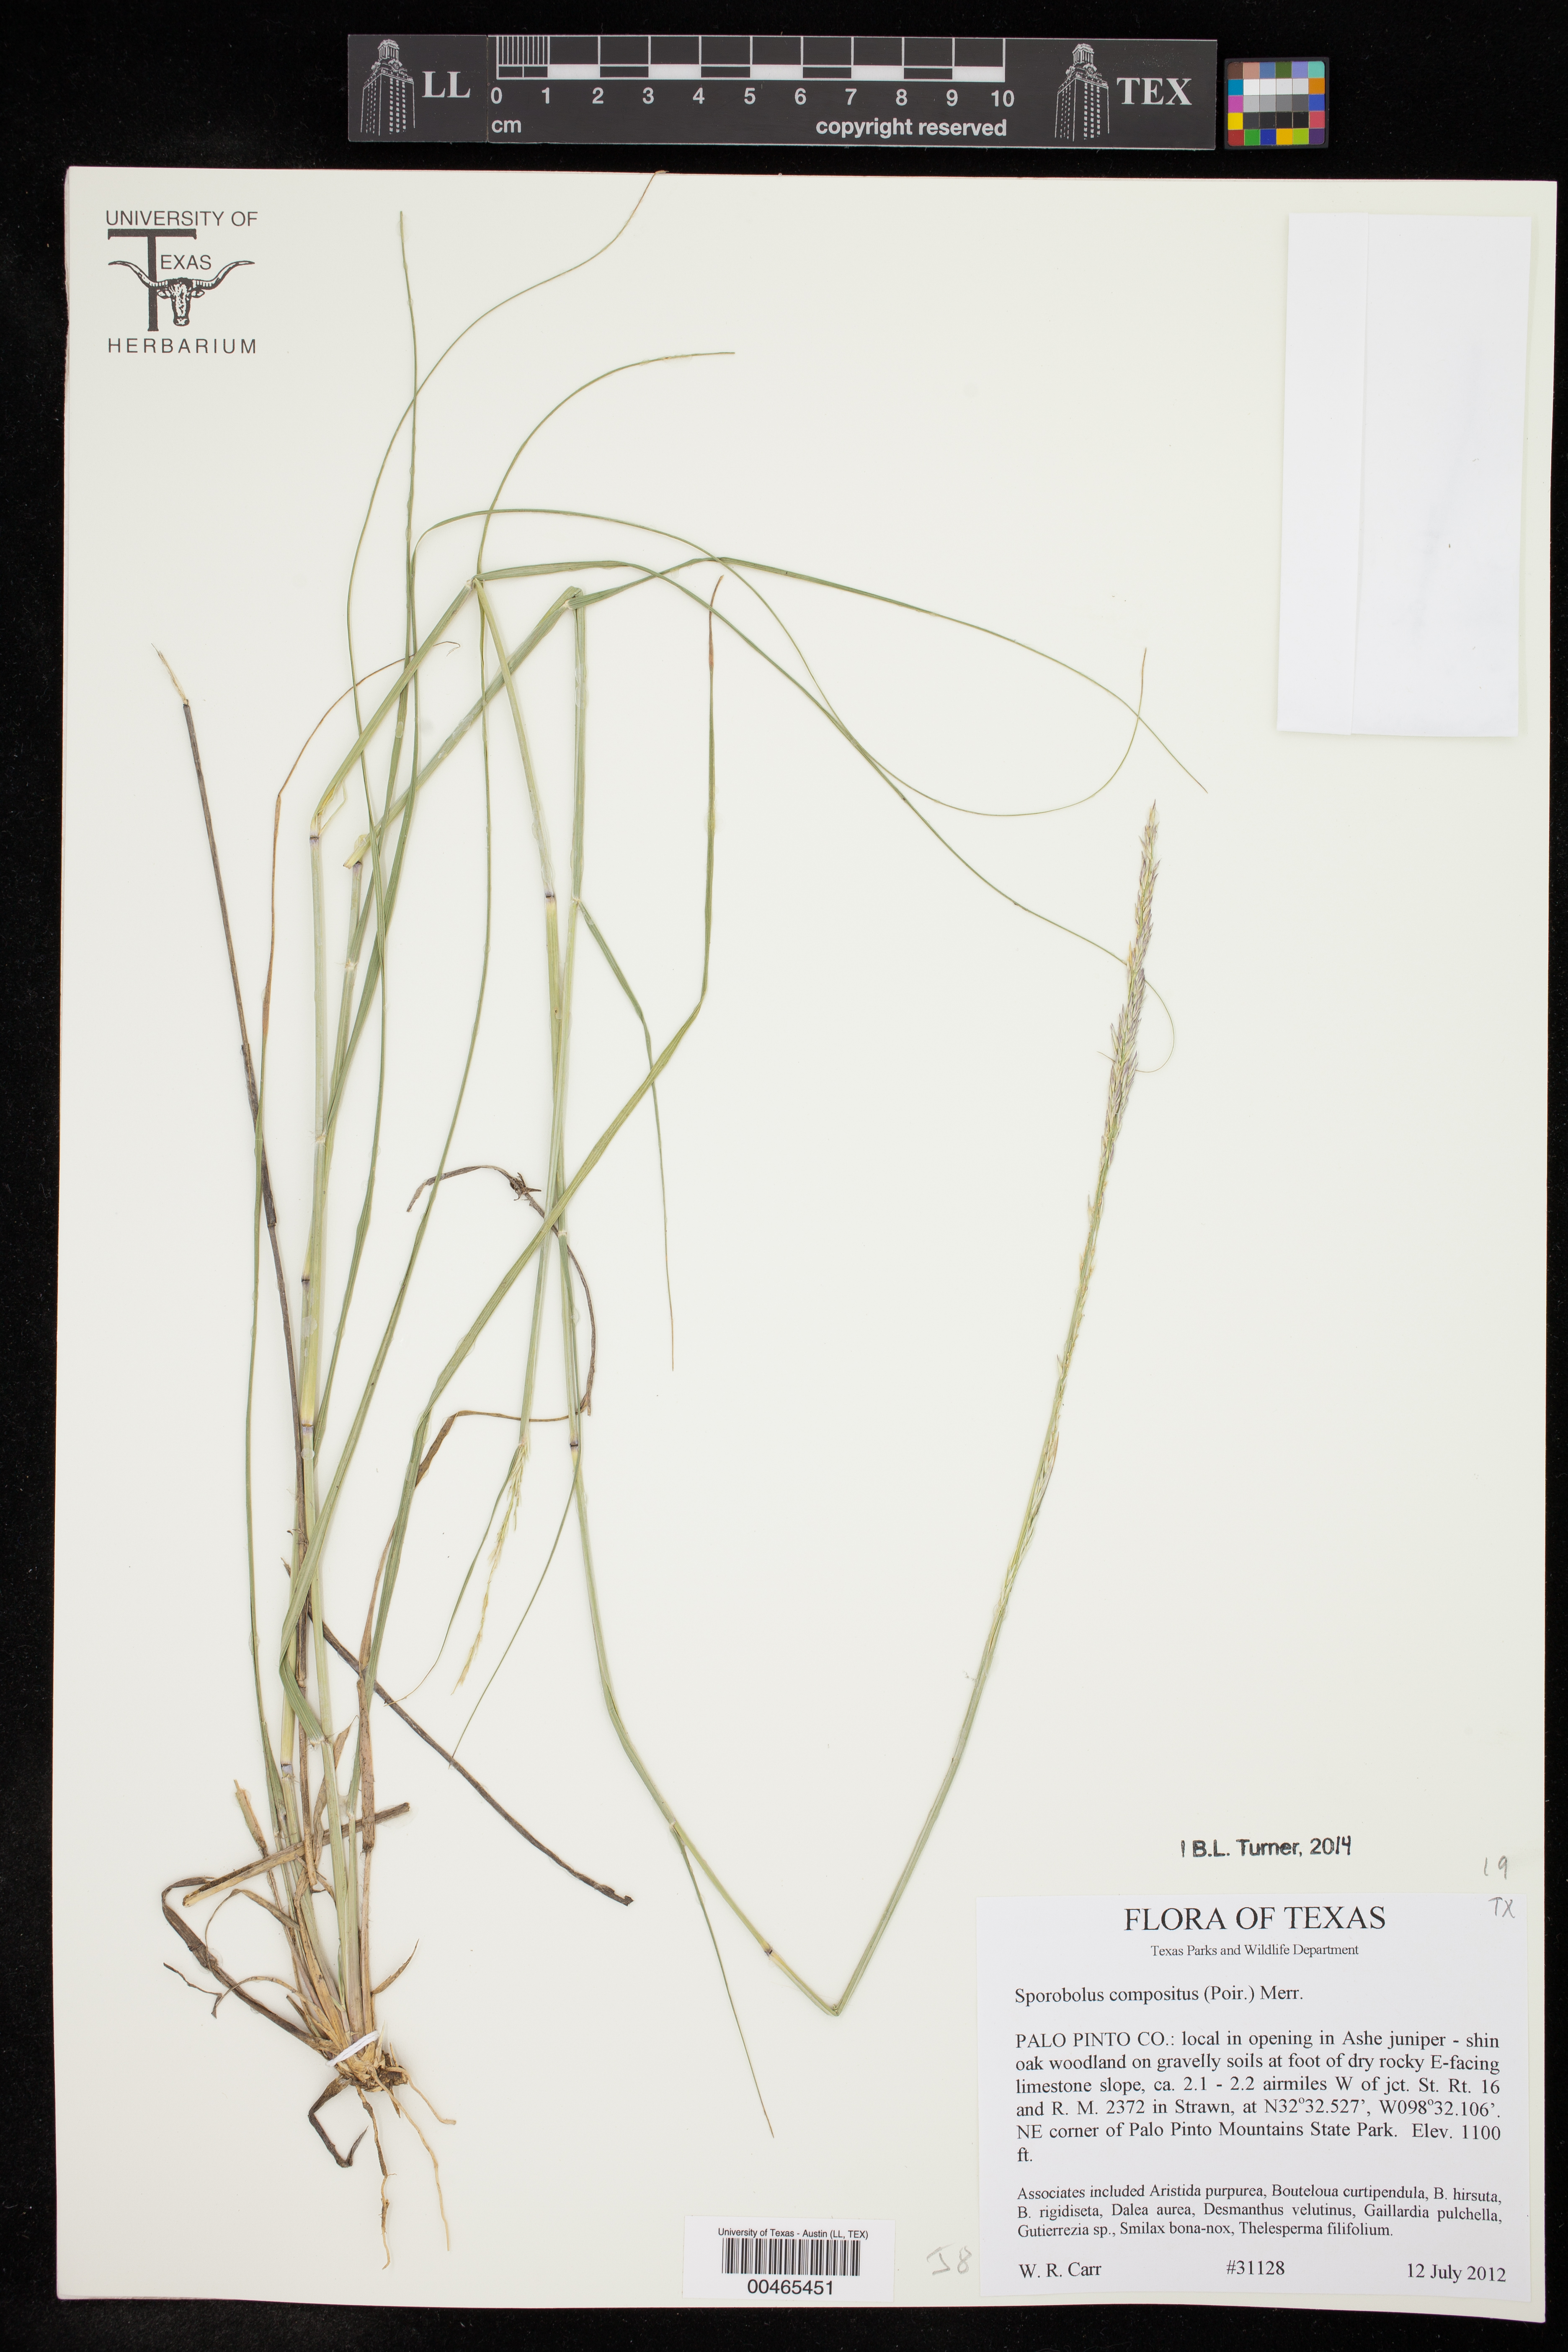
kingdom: Plantae
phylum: Tracheophyta
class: Liliopsida
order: Poales
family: Poaceae
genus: Sporobolus
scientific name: Sporobolus clandestinus
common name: Hidden dropseed
